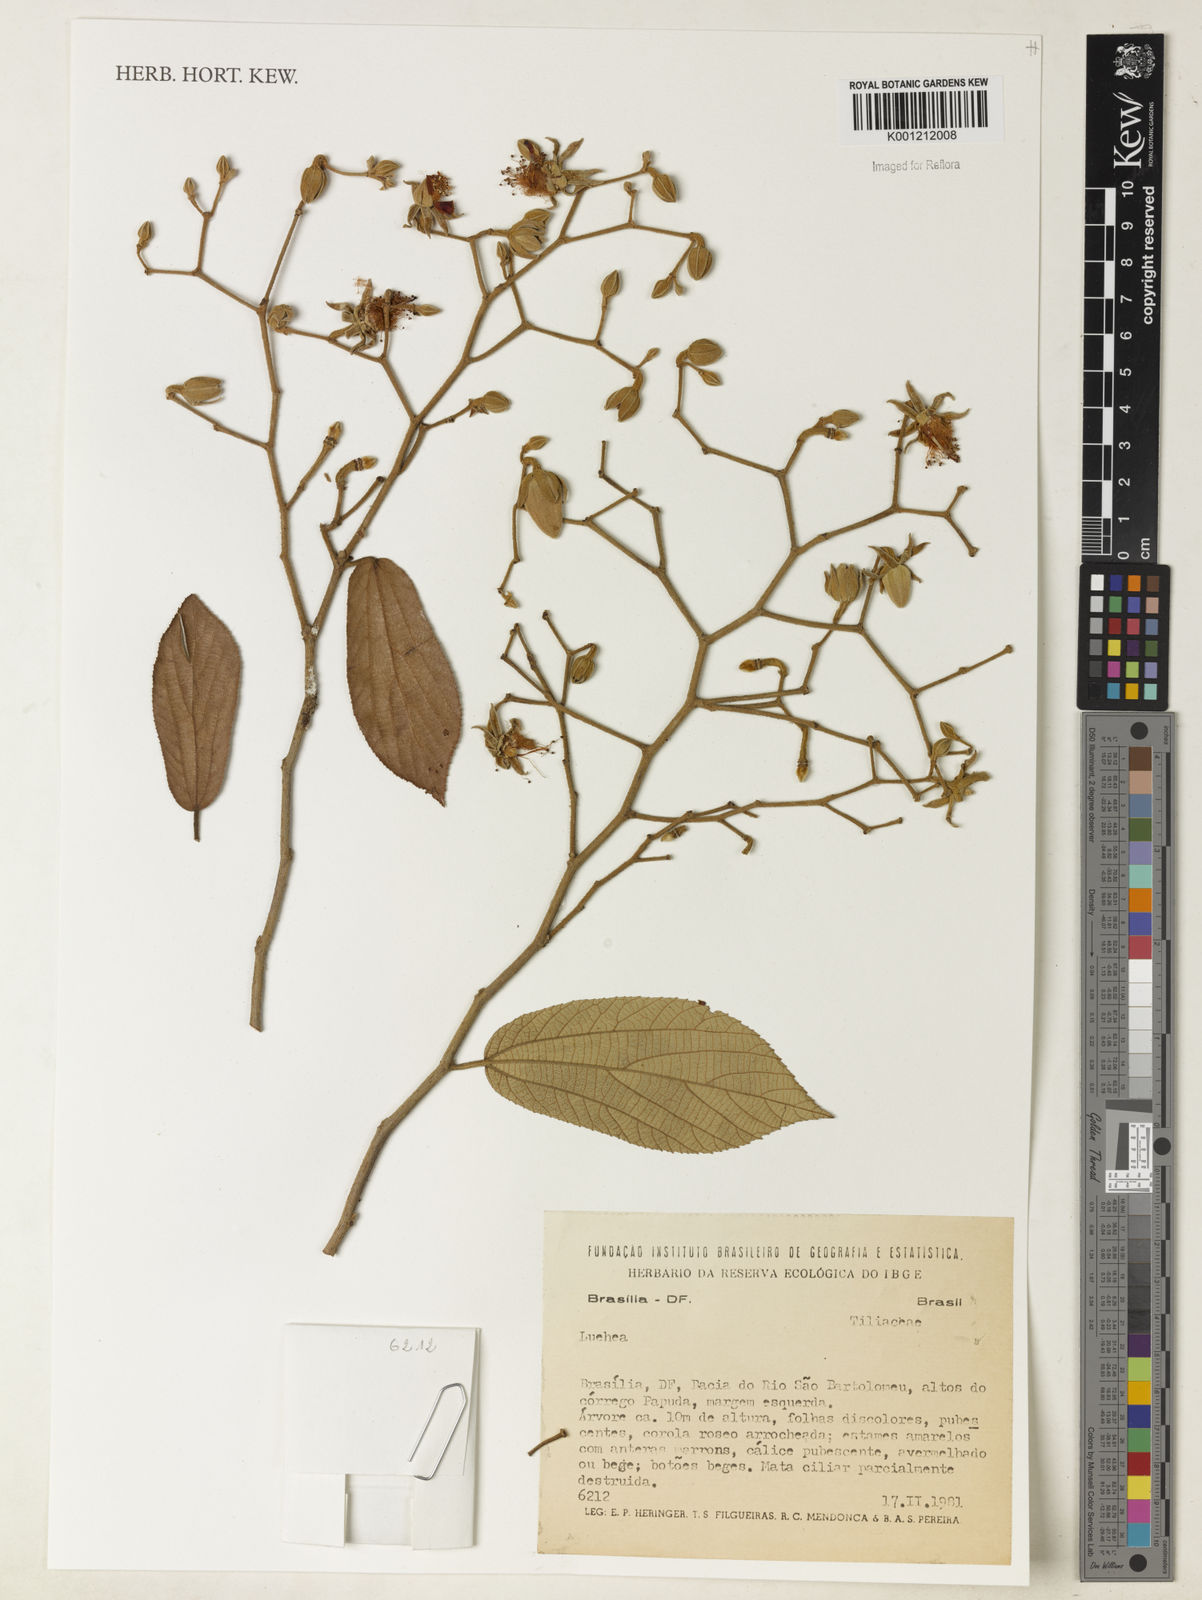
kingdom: Plantae
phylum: Tracheophyta
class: Magnoliopsida
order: Malvales
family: Malvaceae
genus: Luehea
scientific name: Luehea
